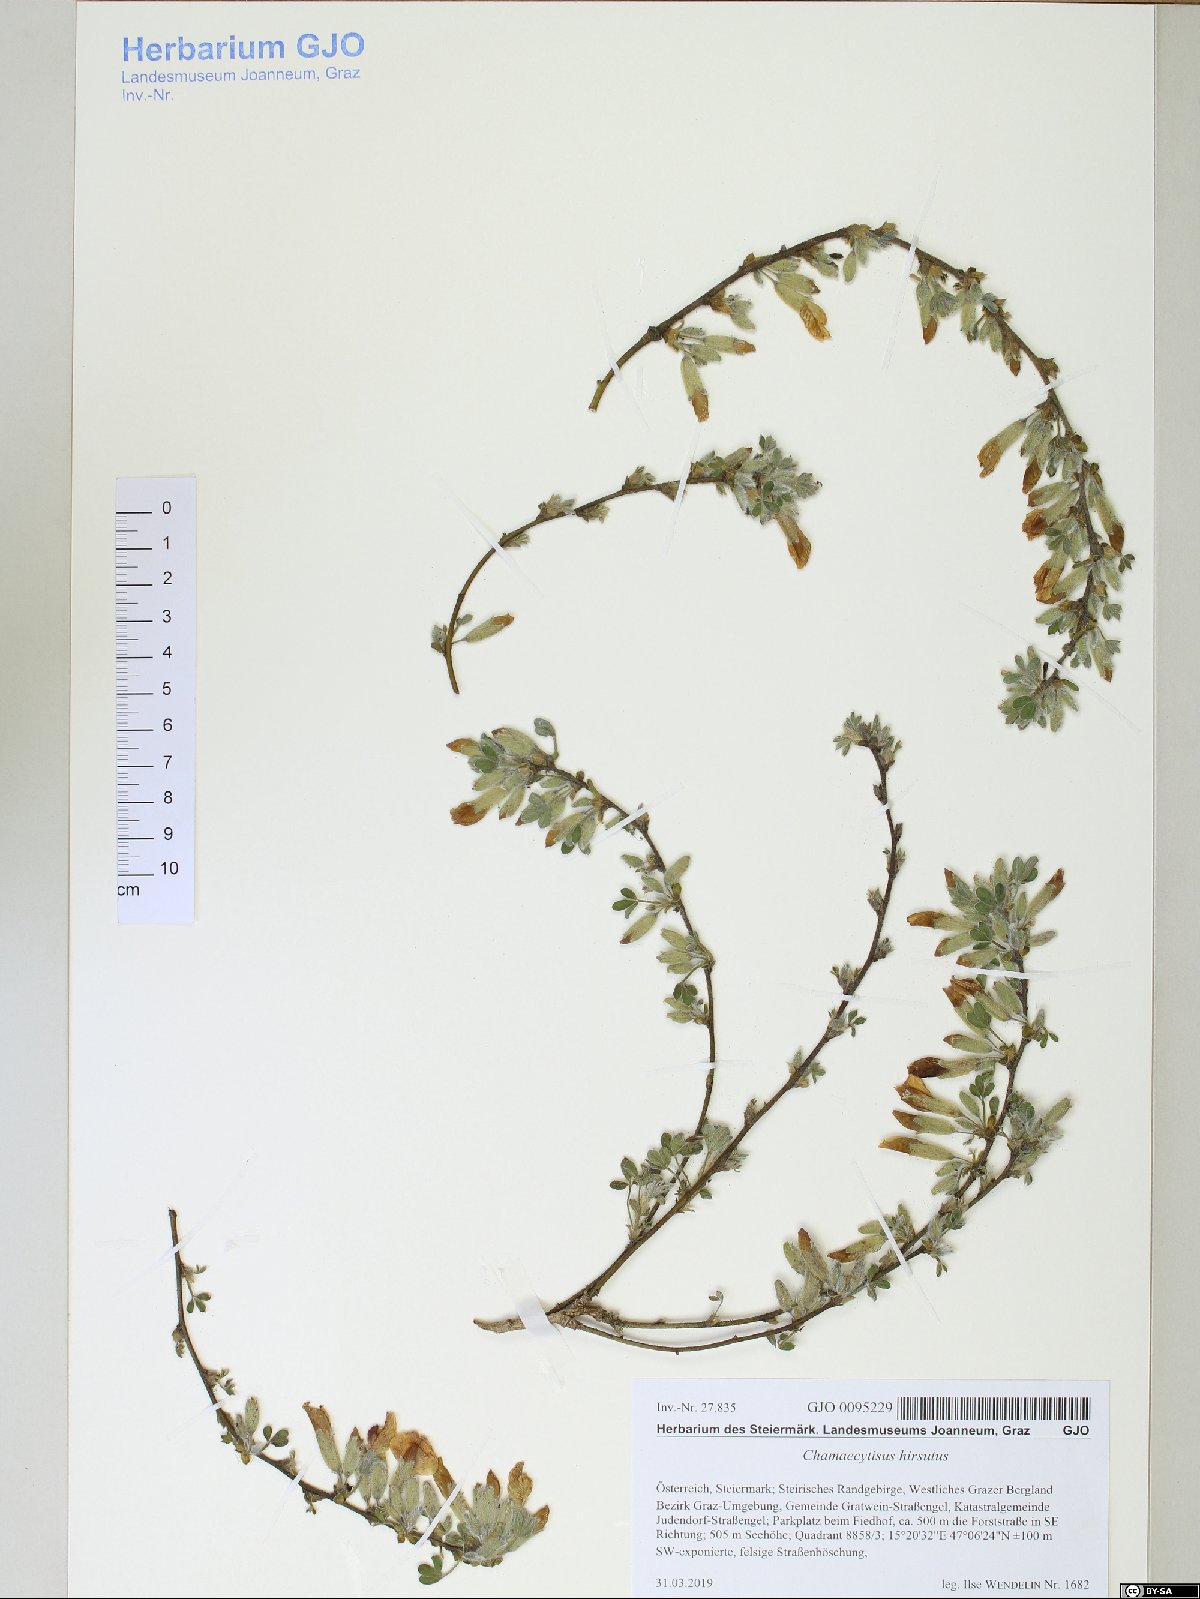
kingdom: Plantae
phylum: Tracheophyta
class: Magnoliopsida
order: Fabales
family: Fabaceae
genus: Chamaecytisus
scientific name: Chamaecytisus hirsutus
